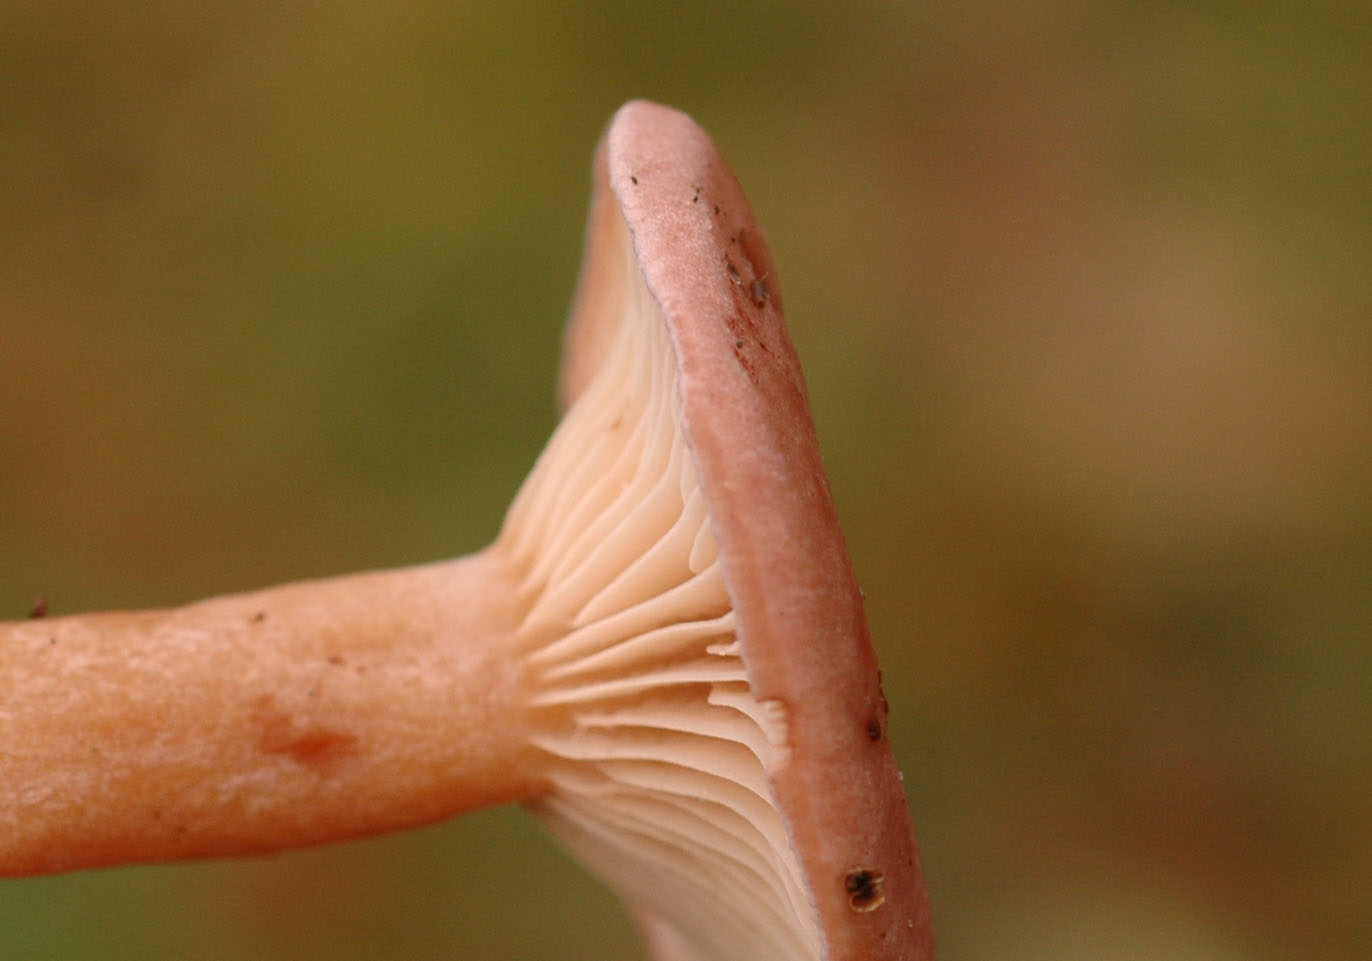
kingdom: Fungi
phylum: Basidiomycota
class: Agaricomycetes
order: Russulales
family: Russulaceae
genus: Lactarius
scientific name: Lactarius lilacinus
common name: lilla mælkehat
